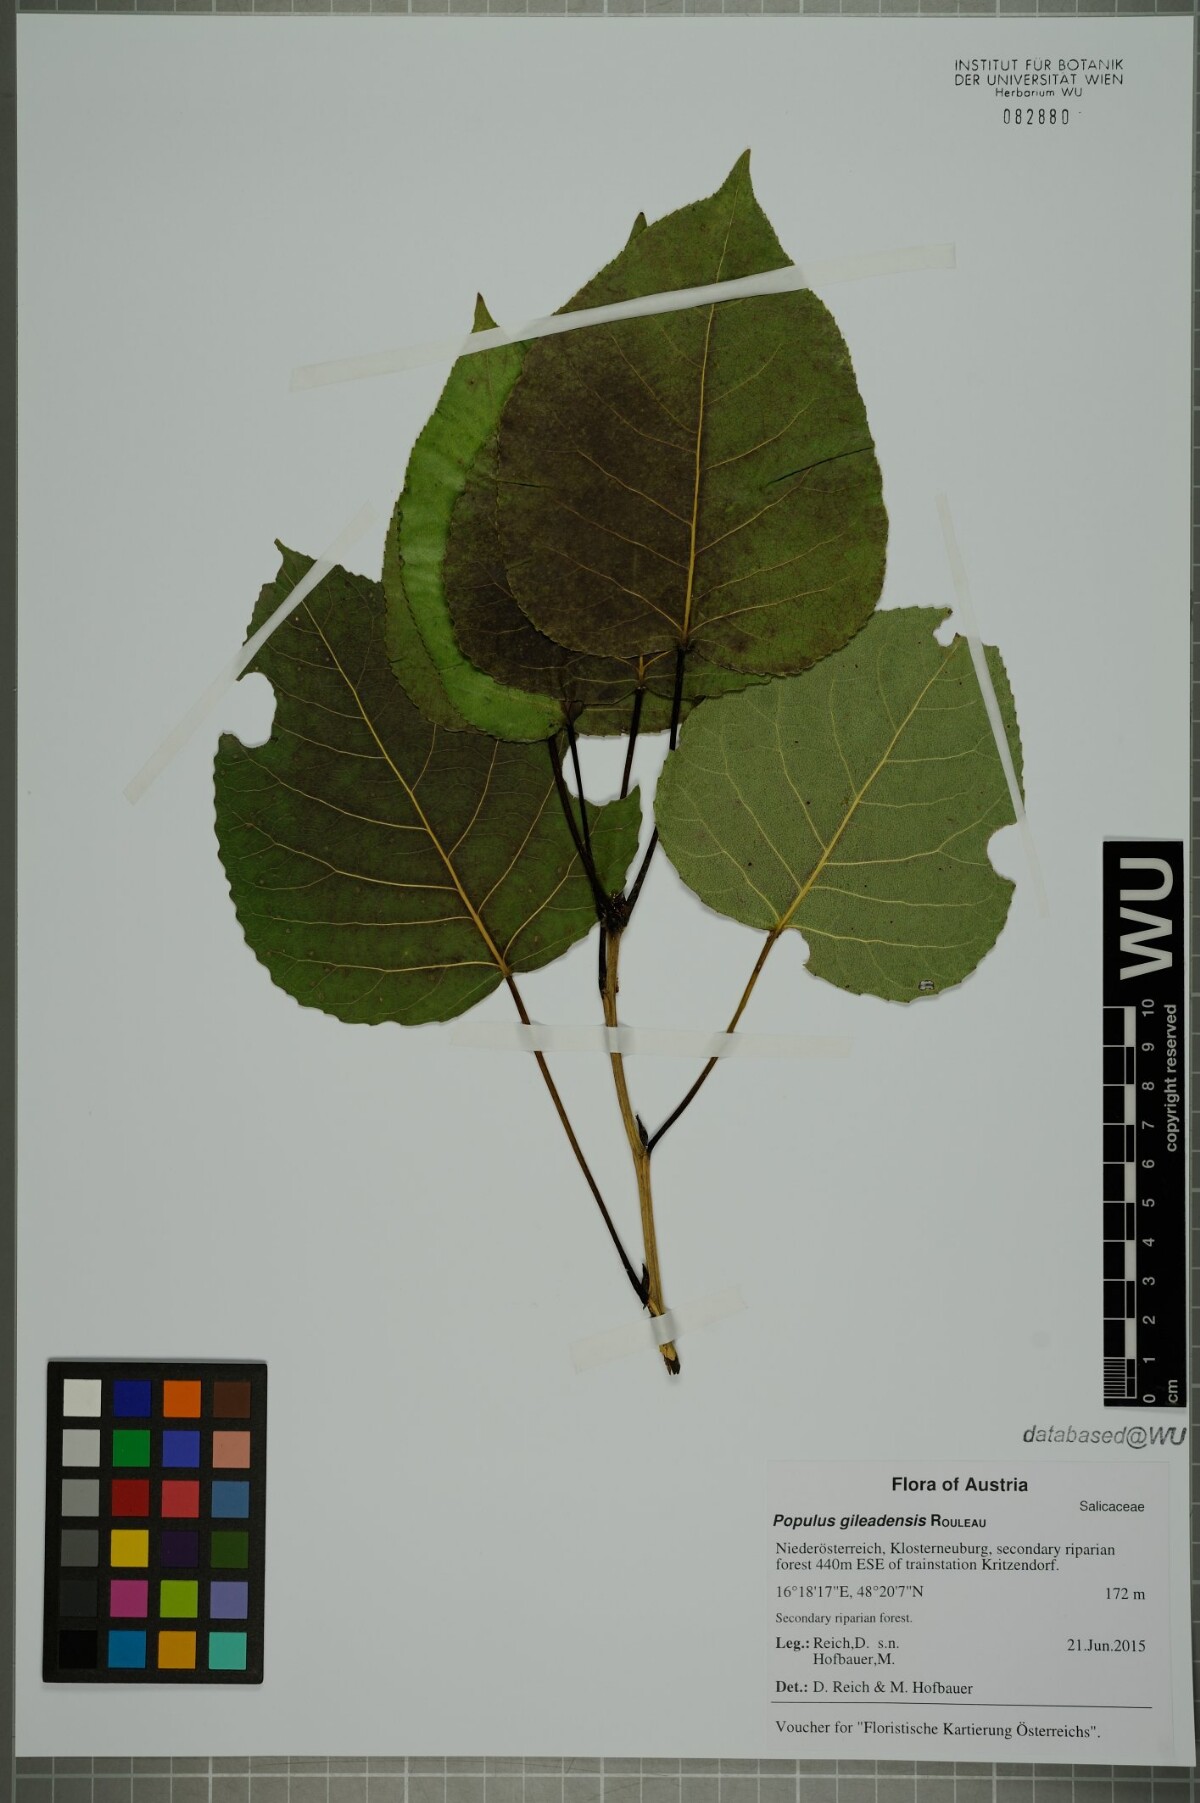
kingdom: Plantae
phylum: Tracheophyta
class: Magnoliopsida
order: Malpighiales
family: Salicaceae
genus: Populus
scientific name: Populus jackii
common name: Balm-of-gilead
